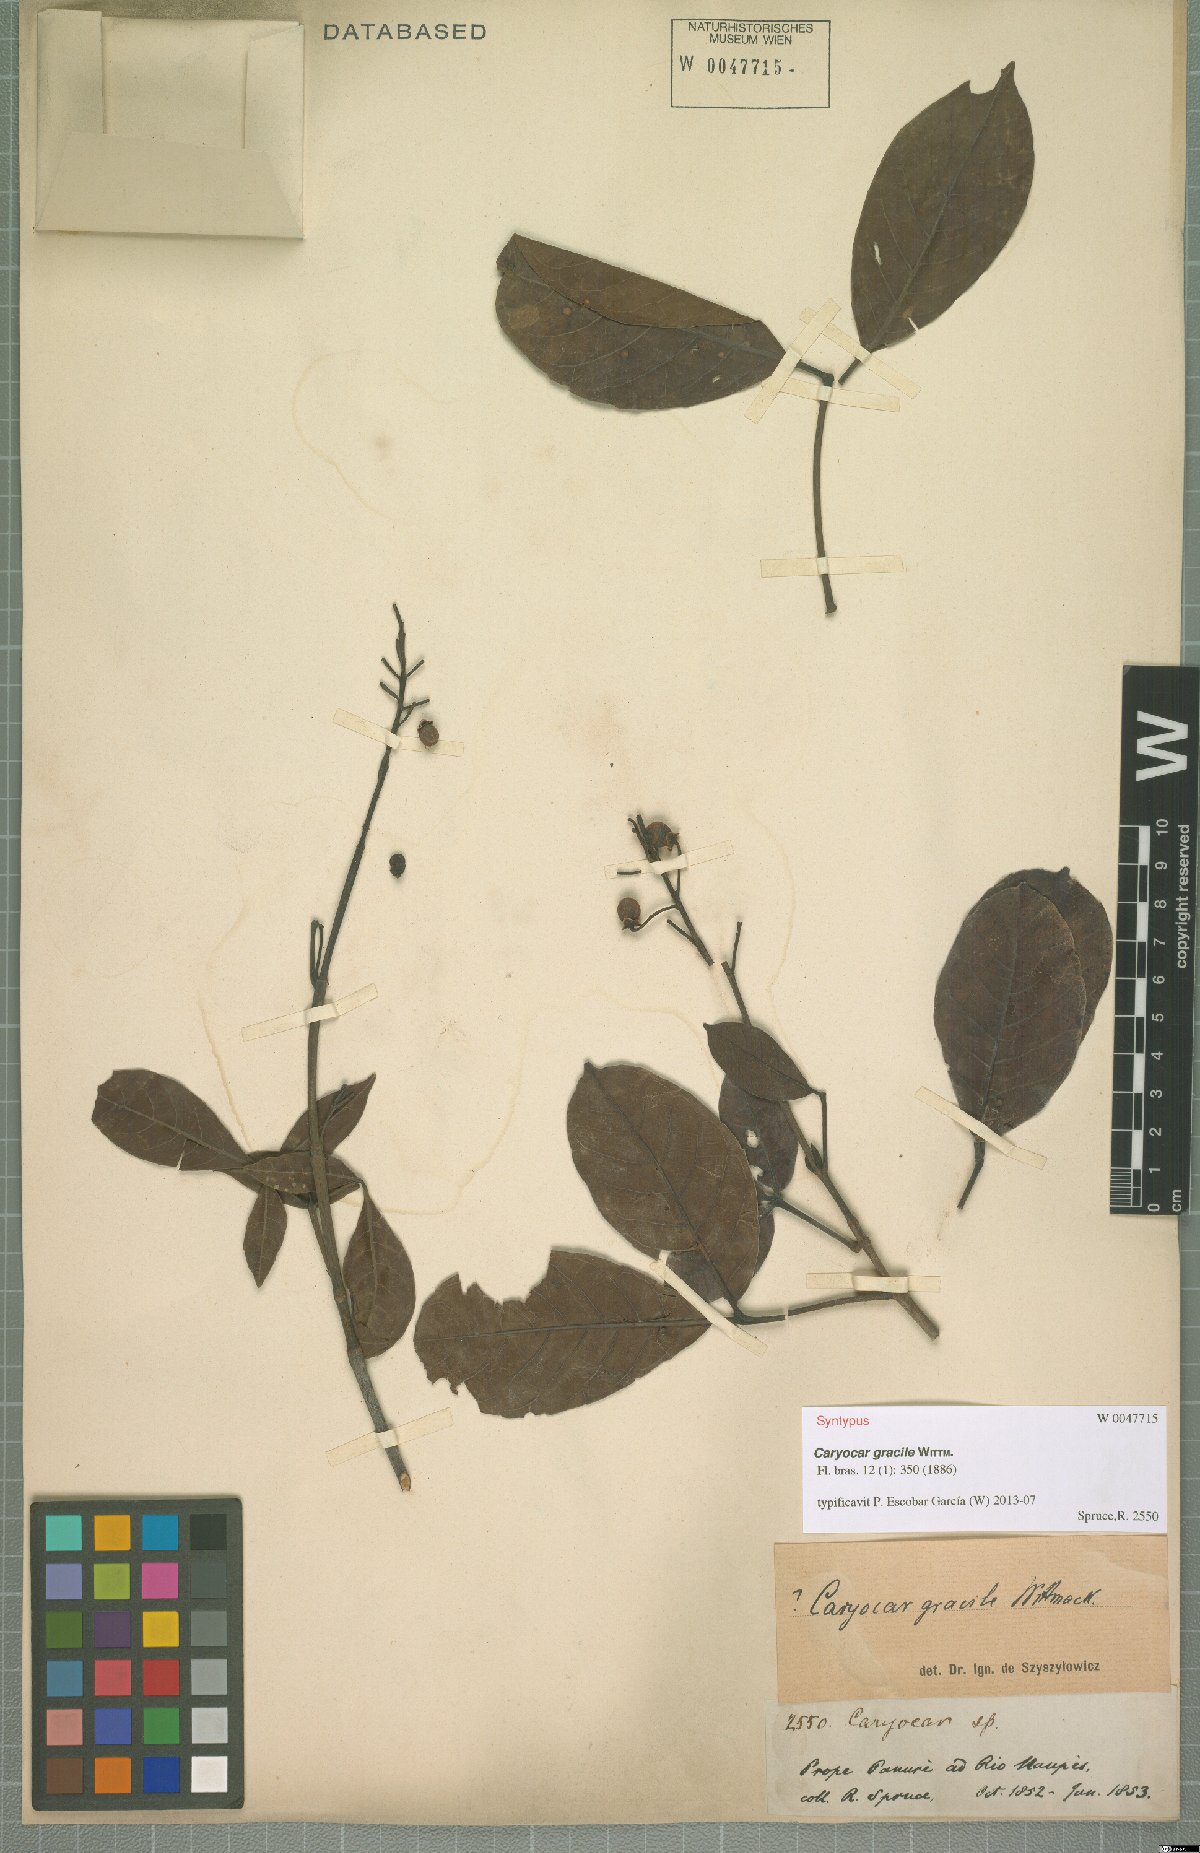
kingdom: Plantae
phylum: Tracheophyta
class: Magnoliopsida
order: Malpighiales
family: Caryocaraceae
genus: Caryocar
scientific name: Caryocar gracile
